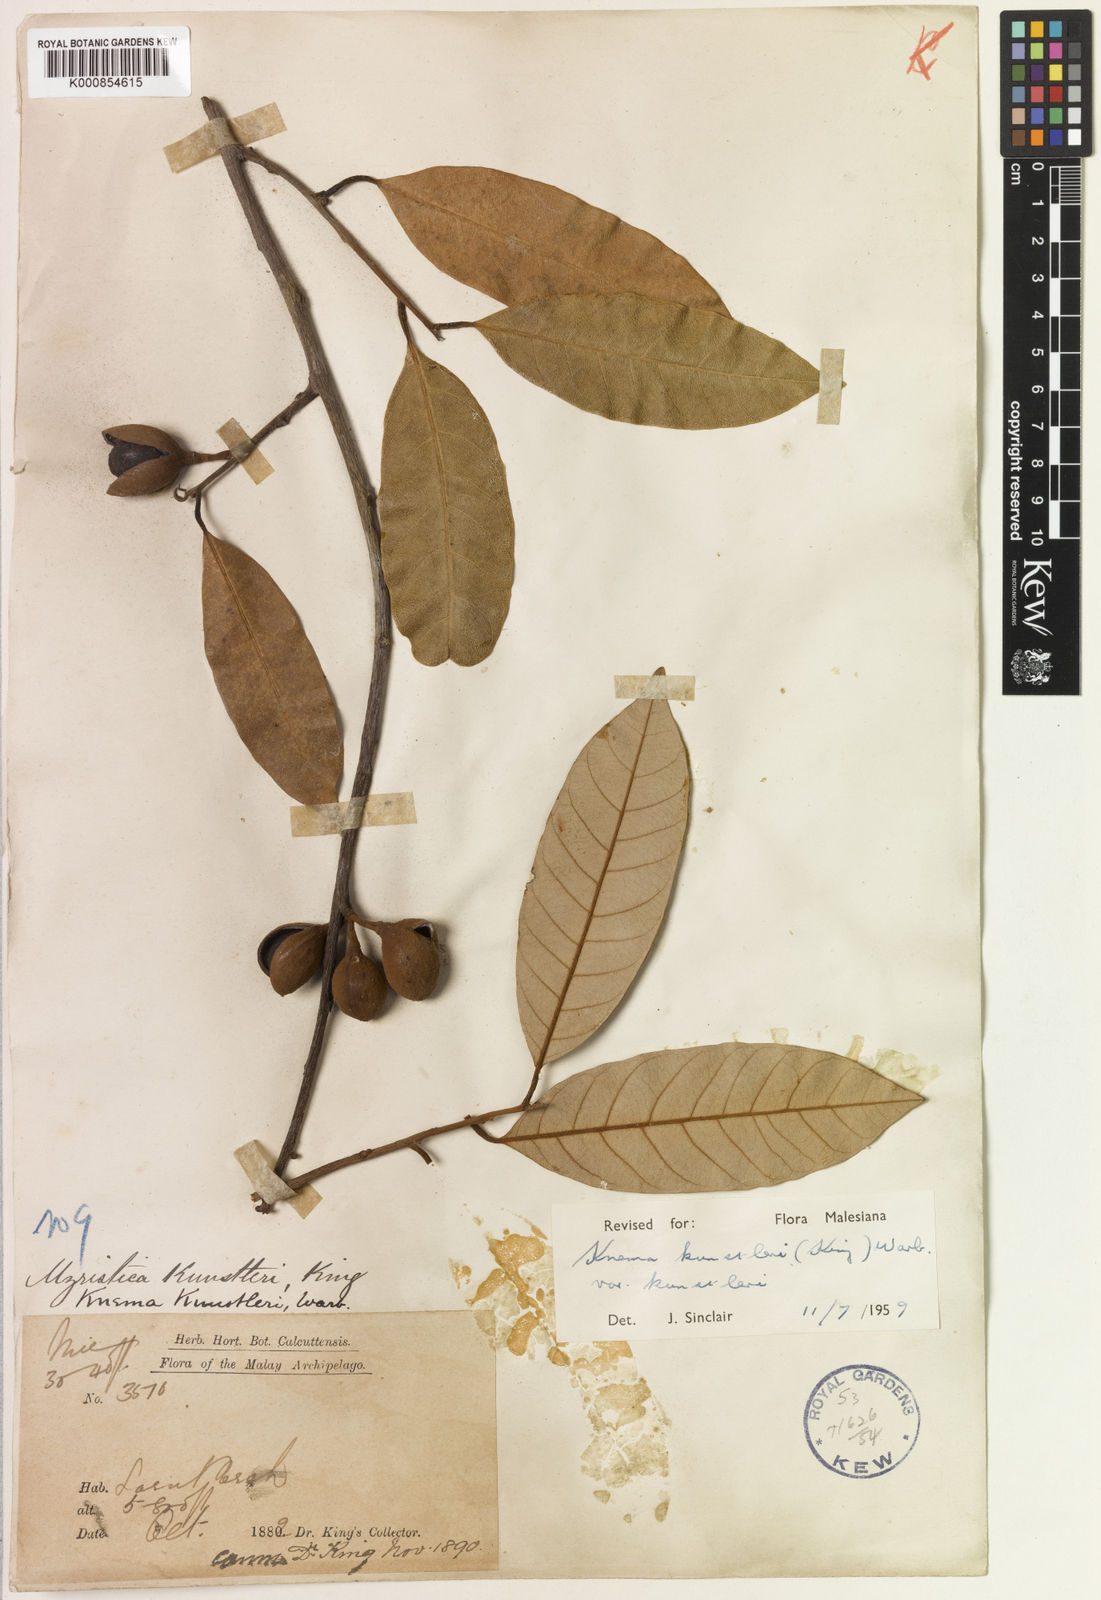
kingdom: Plantae
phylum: Tracheophyta
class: Magnoliopsida
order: Magnoliales
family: Myristicaceae
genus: Knema
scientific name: Knema kunstleri
